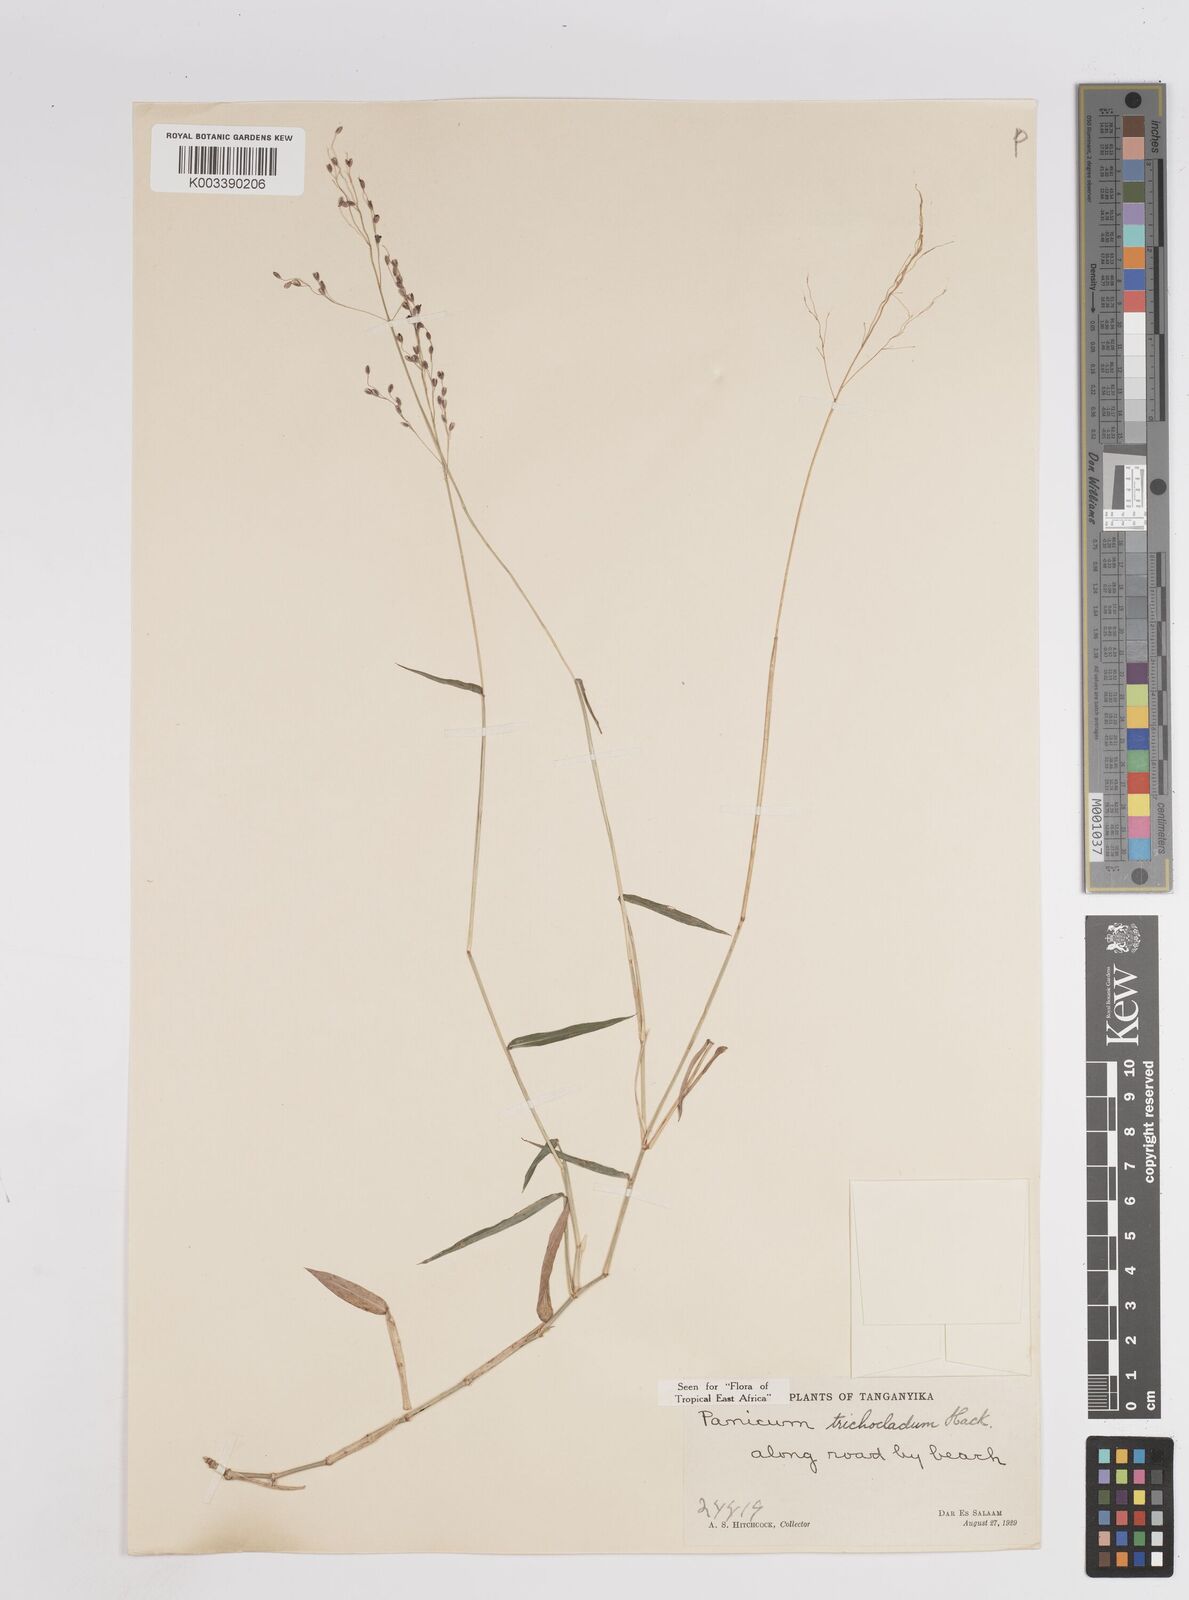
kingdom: Plantae
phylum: Tracheophyta
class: Liliopsida
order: Poales
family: Poaceae
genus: Panicum
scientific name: Panicum trichocladum
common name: Donkey grass
